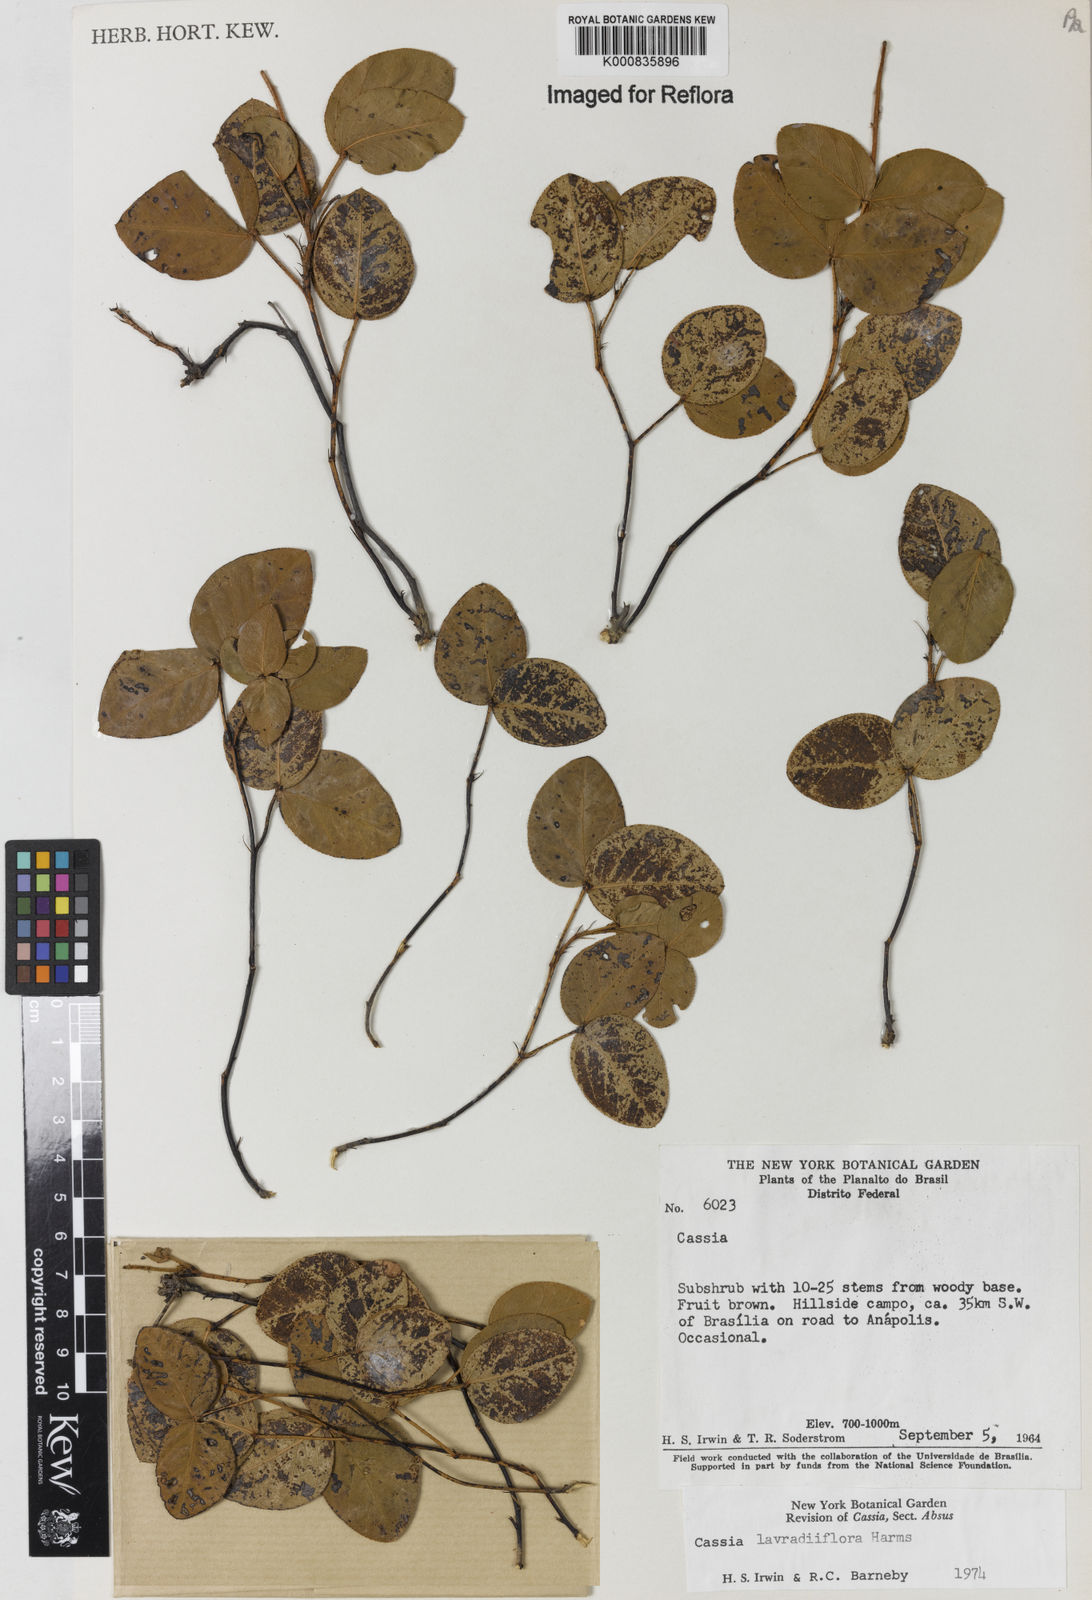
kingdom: Plantae
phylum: Tracheophyta
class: Magnoliopsida
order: Fabales
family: Fabaceae
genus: Chamaecrista
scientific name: Chamaecrista lavradiiflora
